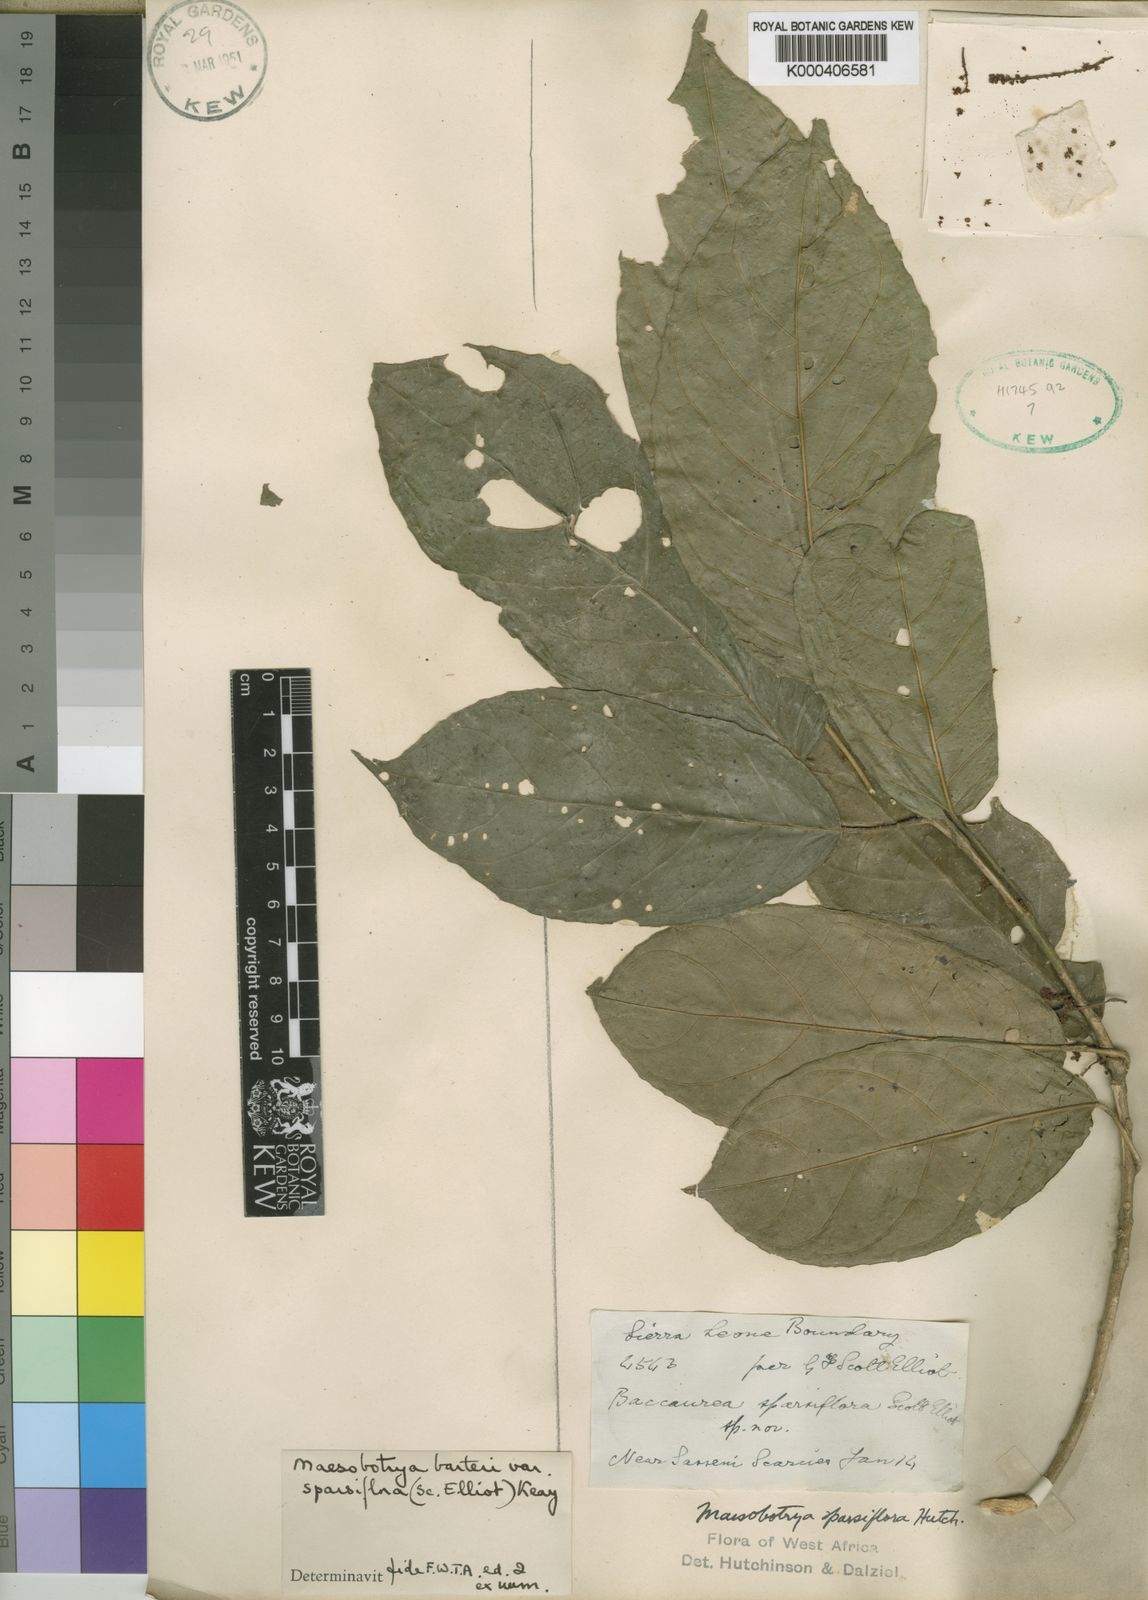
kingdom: Plantae
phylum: Tracheophyta
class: Magnoliopsida
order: Malpighiales
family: Phyllanthaceae
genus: Maesobotrya
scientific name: Maesobotrya barteri
